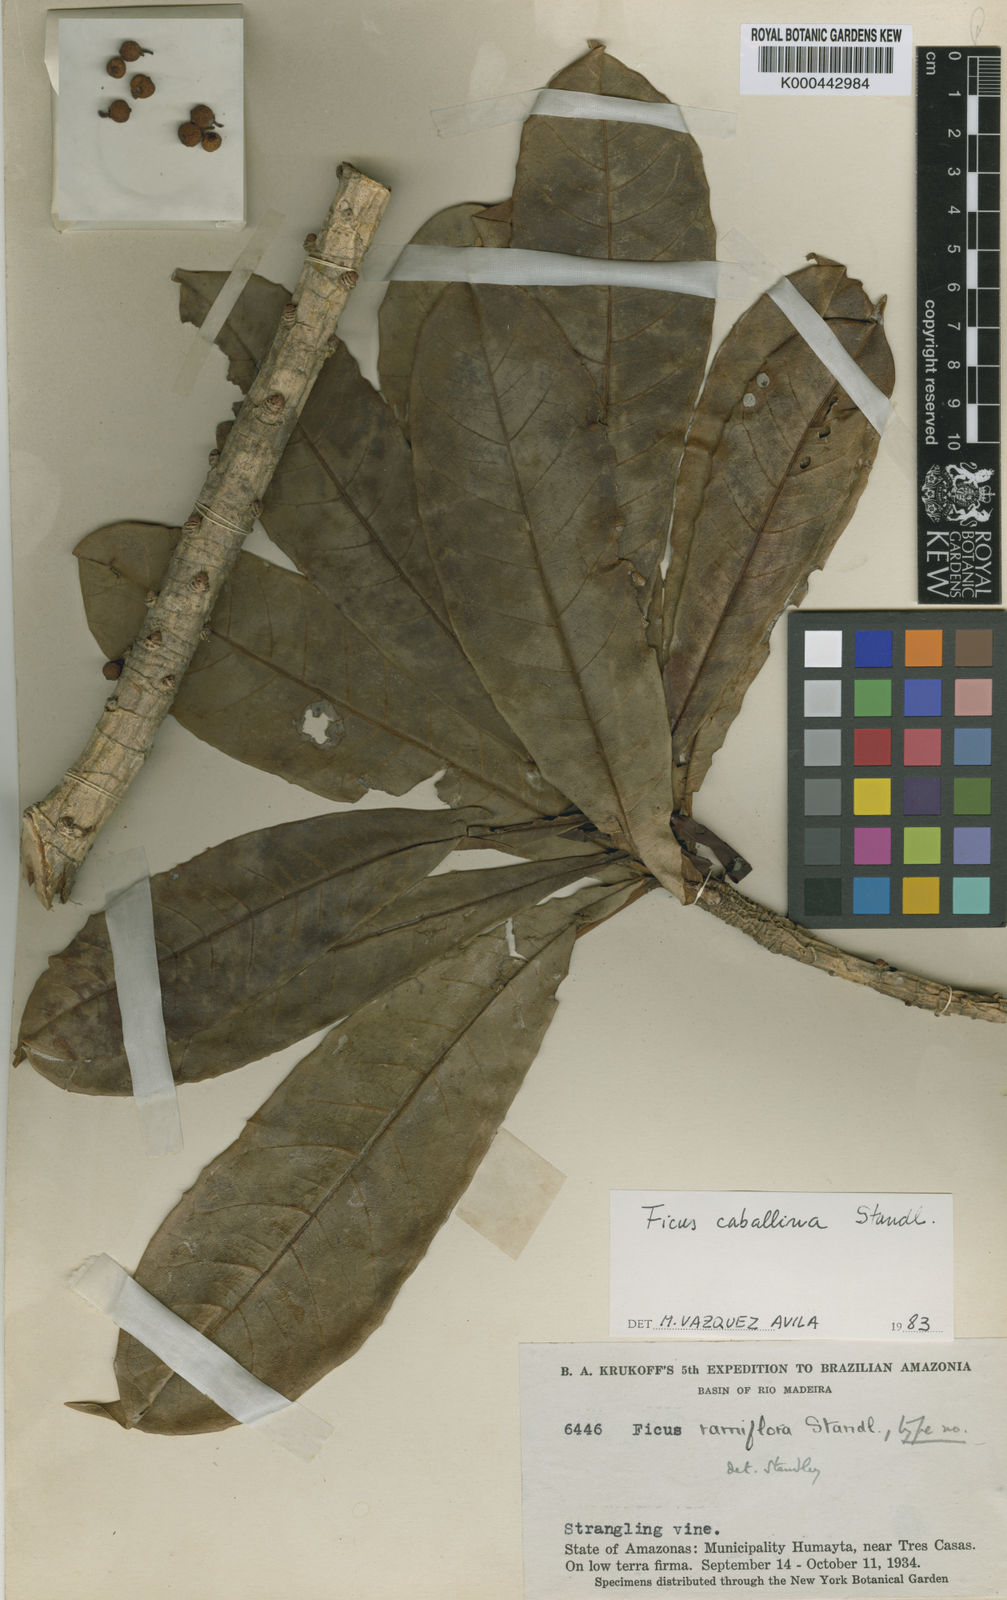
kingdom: Plantae
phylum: Tracheophyta
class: Magnoliopsida
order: Rosales
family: Moraceae
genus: Ficus
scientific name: Ficus longifolia
